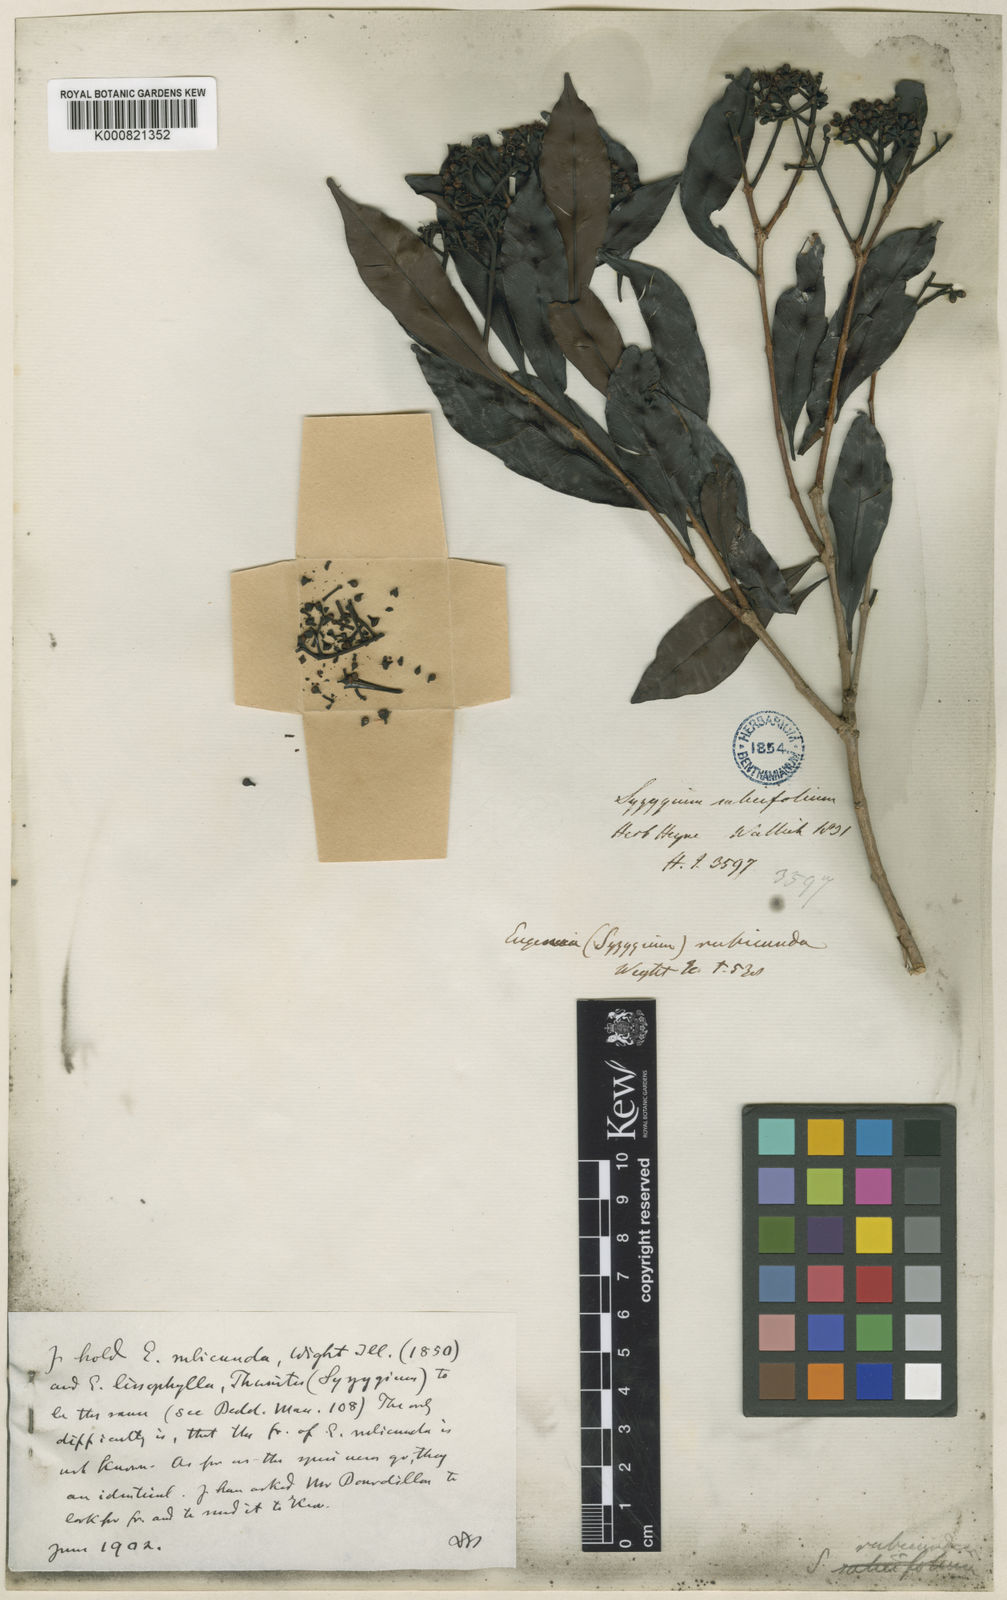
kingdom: Plantae
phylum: Tracheophyta
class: Magnoliopsida
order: Myrtales
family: Myrtaceae
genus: Syzygium
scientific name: Syzygium rubicundum
